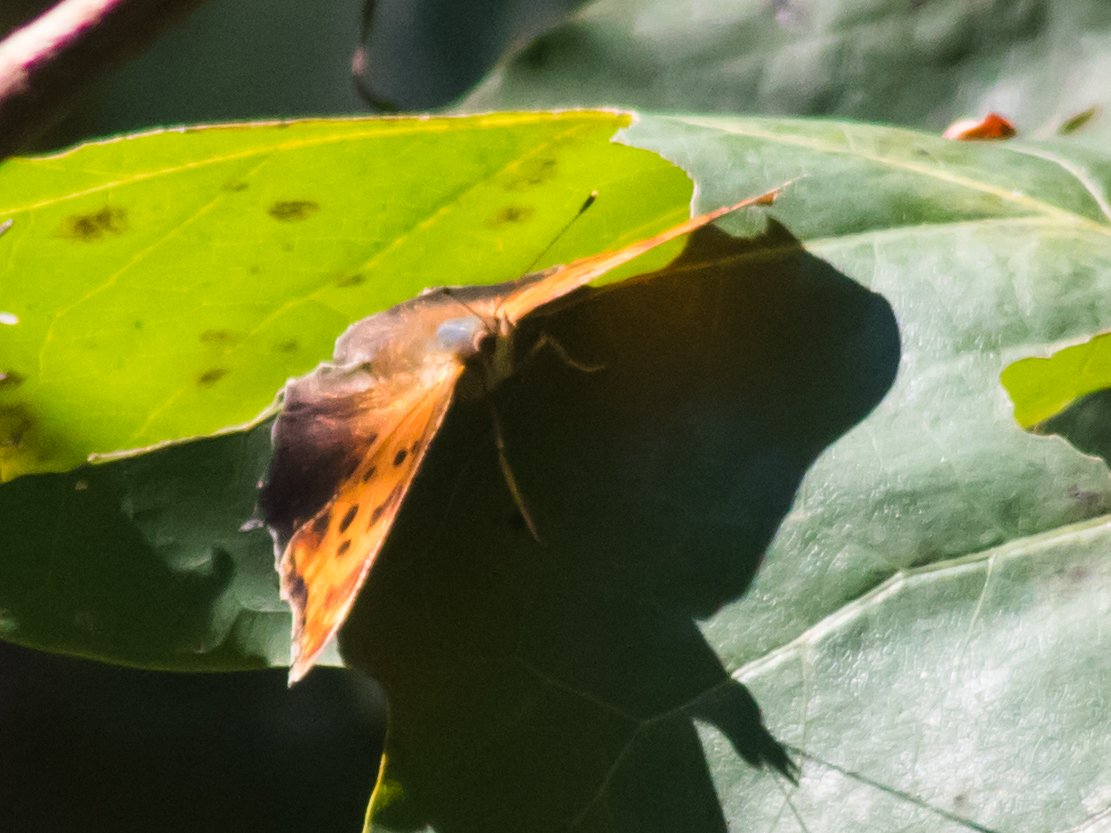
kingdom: Animalia
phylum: Arthropoda
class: Insecta
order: Lepidoptera
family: Nymphalidae
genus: Polygonia
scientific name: Polygonia comma
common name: Eastern Comma
